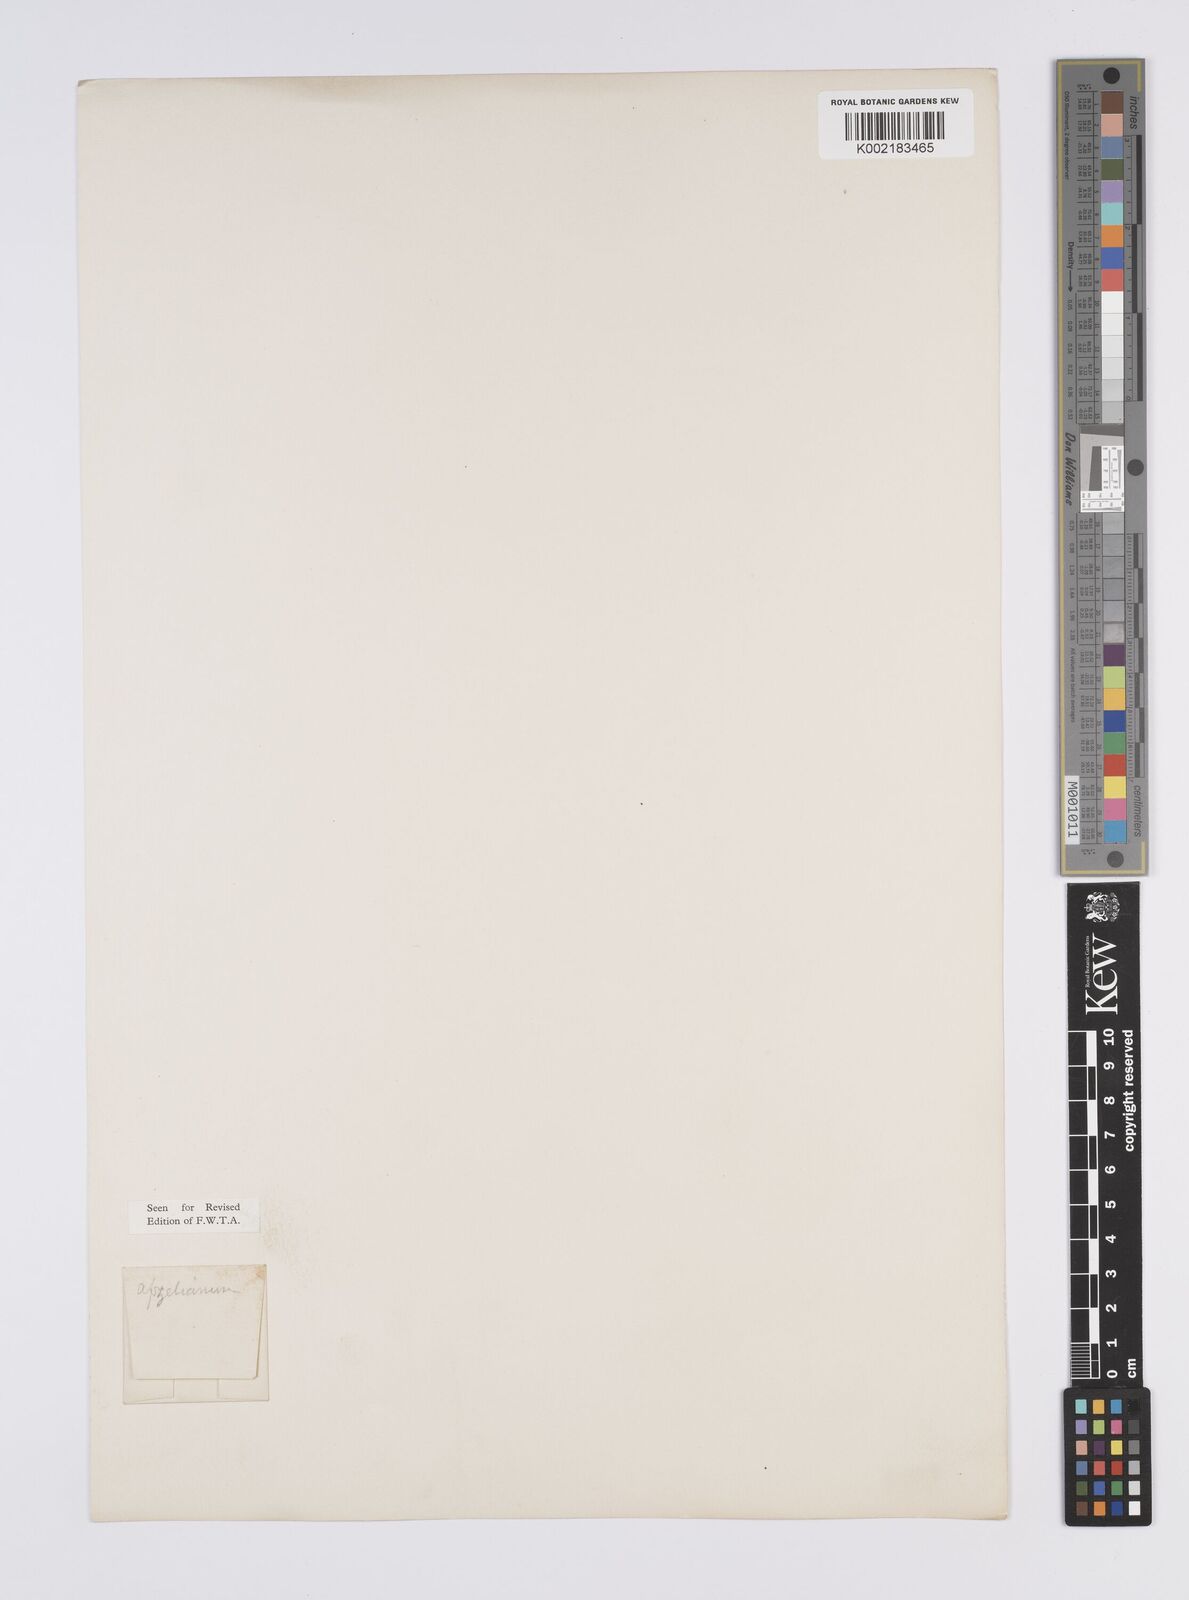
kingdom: Plantae
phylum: Tracheophyta
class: Liliopsida
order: Poales
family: Eriocaulaceae
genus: Eriocaulon
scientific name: Eriocaulon afzelianum
